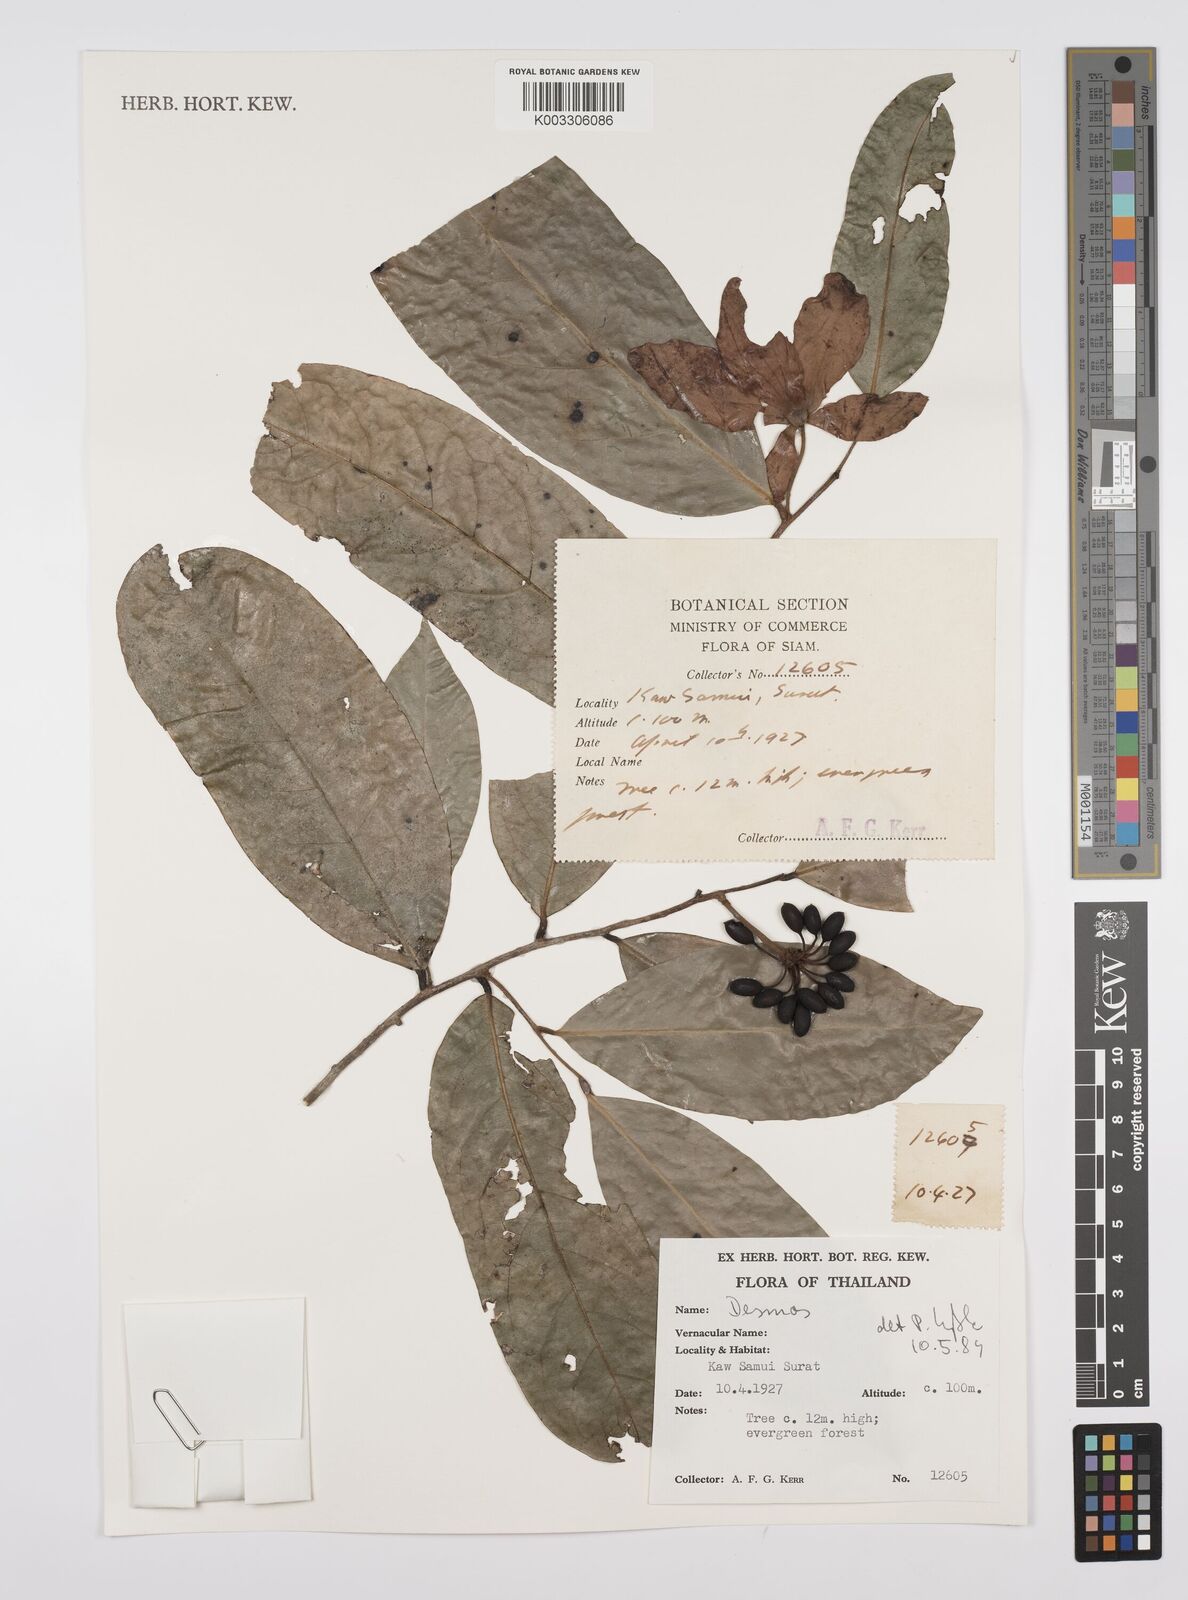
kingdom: Plantae
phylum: Tracheophyta
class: Magnoliopsida
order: Magnoliales
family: Annonaceae
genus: Huberantha
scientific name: Huberantha
